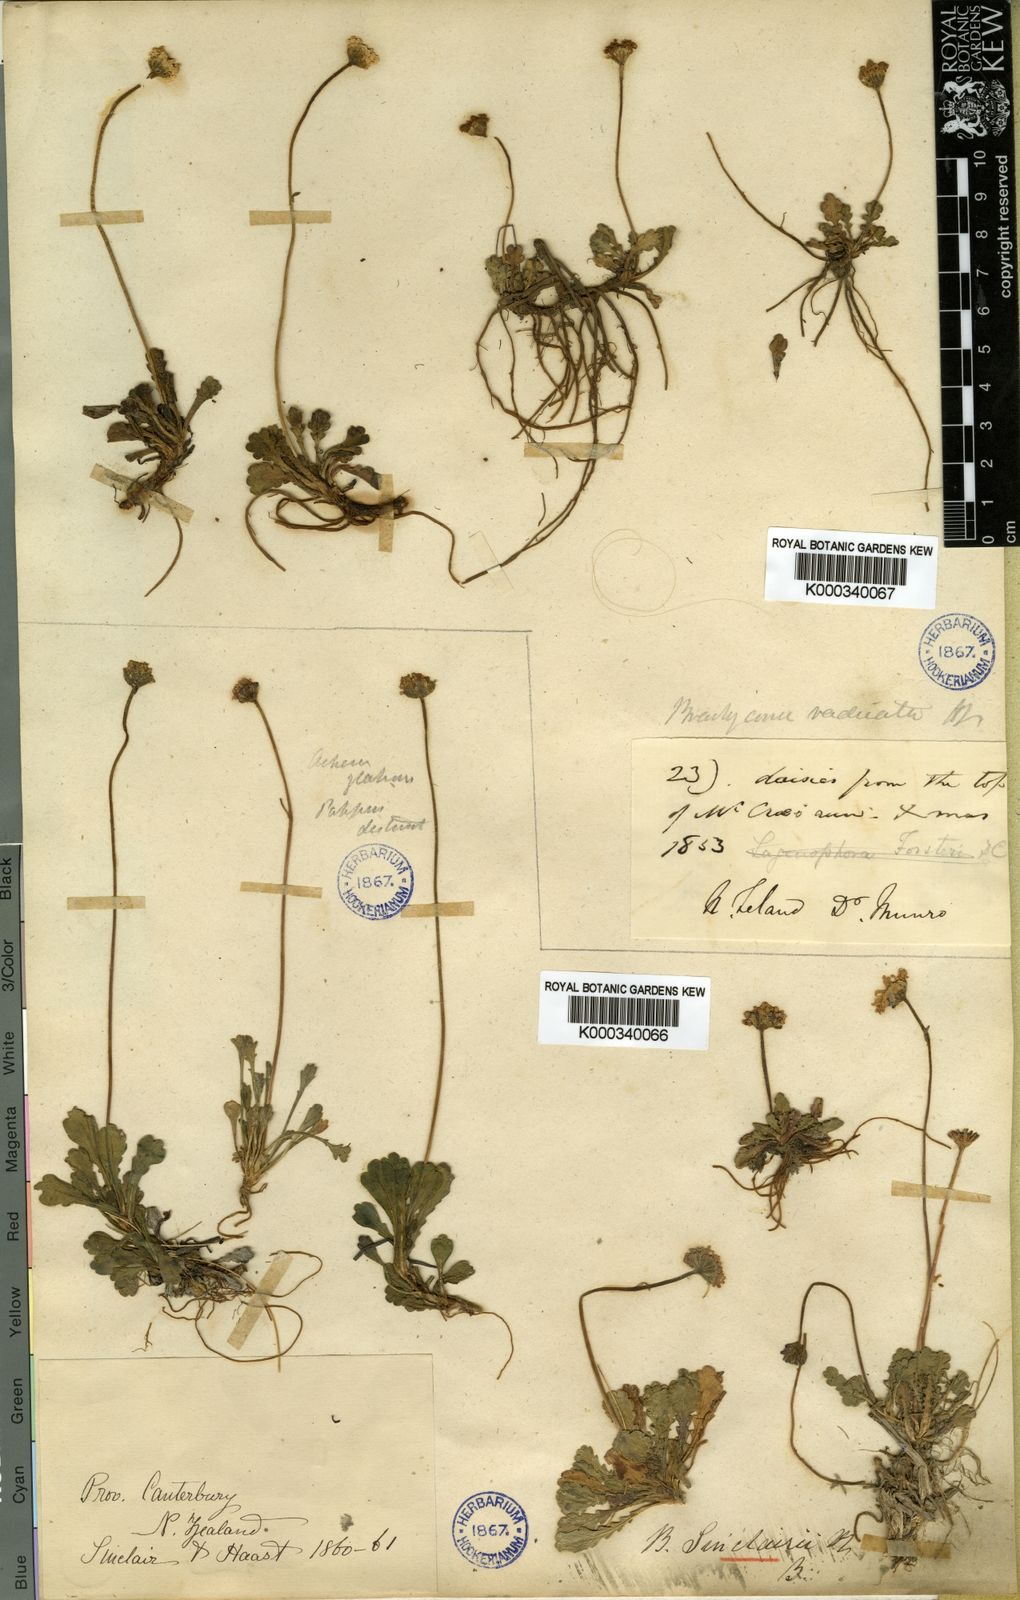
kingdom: Plantae
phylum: Tracheophyta
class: Magnoliopsida
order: Asterales
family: Asteraceae
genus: Brachyscome
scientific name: Brachyscome sinclairii
